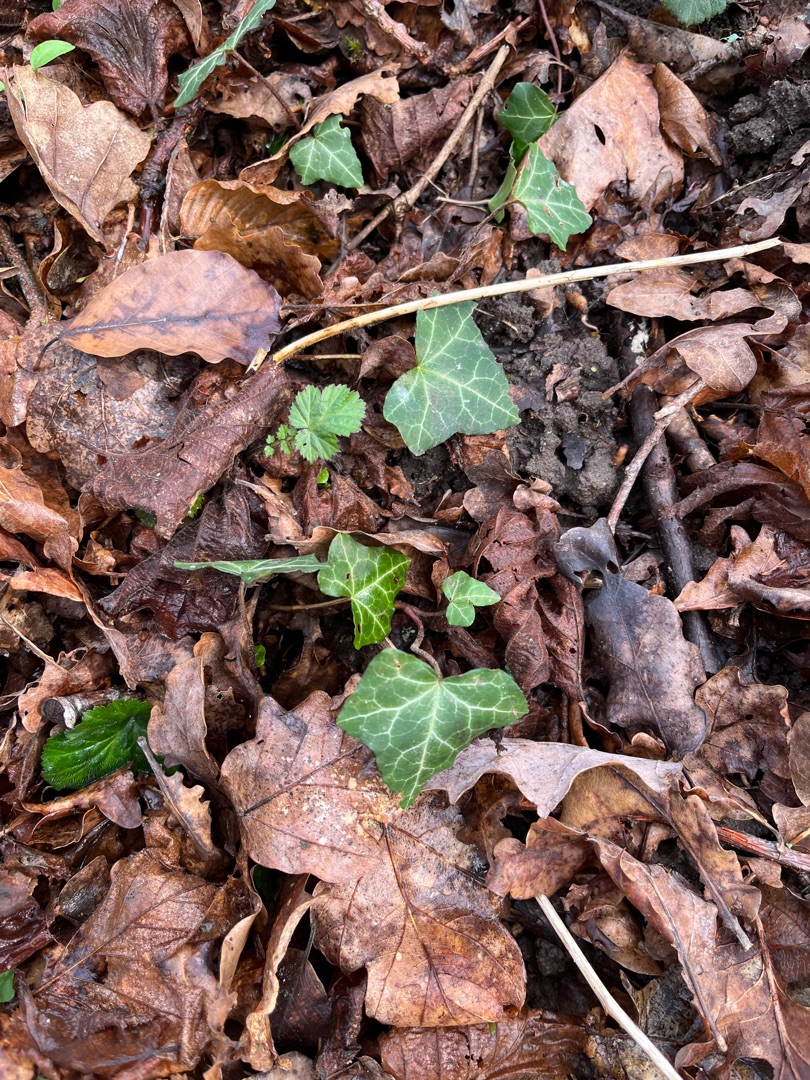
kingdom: Plantae
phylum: Tracheophyta
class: Magnoliopsida
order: Apiales
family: Araliaceae
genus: Hedera
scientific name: Hedera helix
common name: Vedbend
